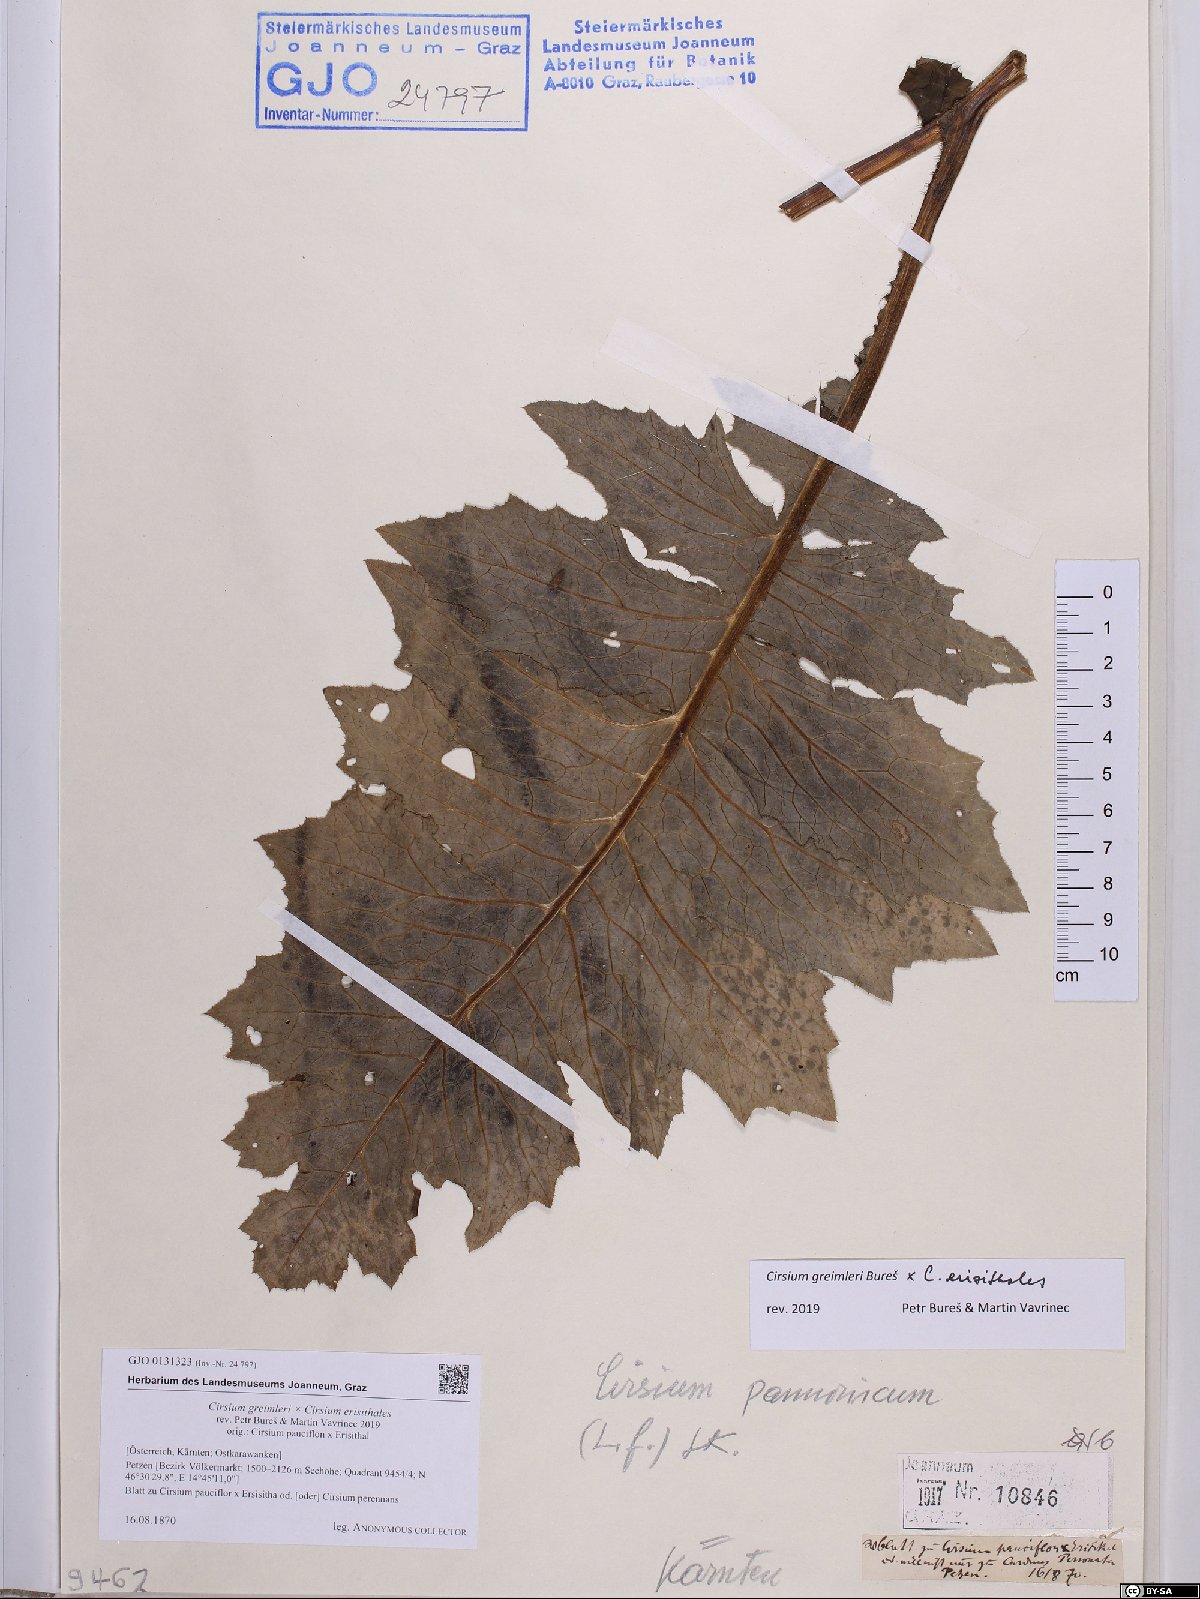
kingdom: Plantae
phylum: Tracheophyta
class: Magnoliopsida
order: Asterales
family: Asteraceae
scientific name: Asteraceae
